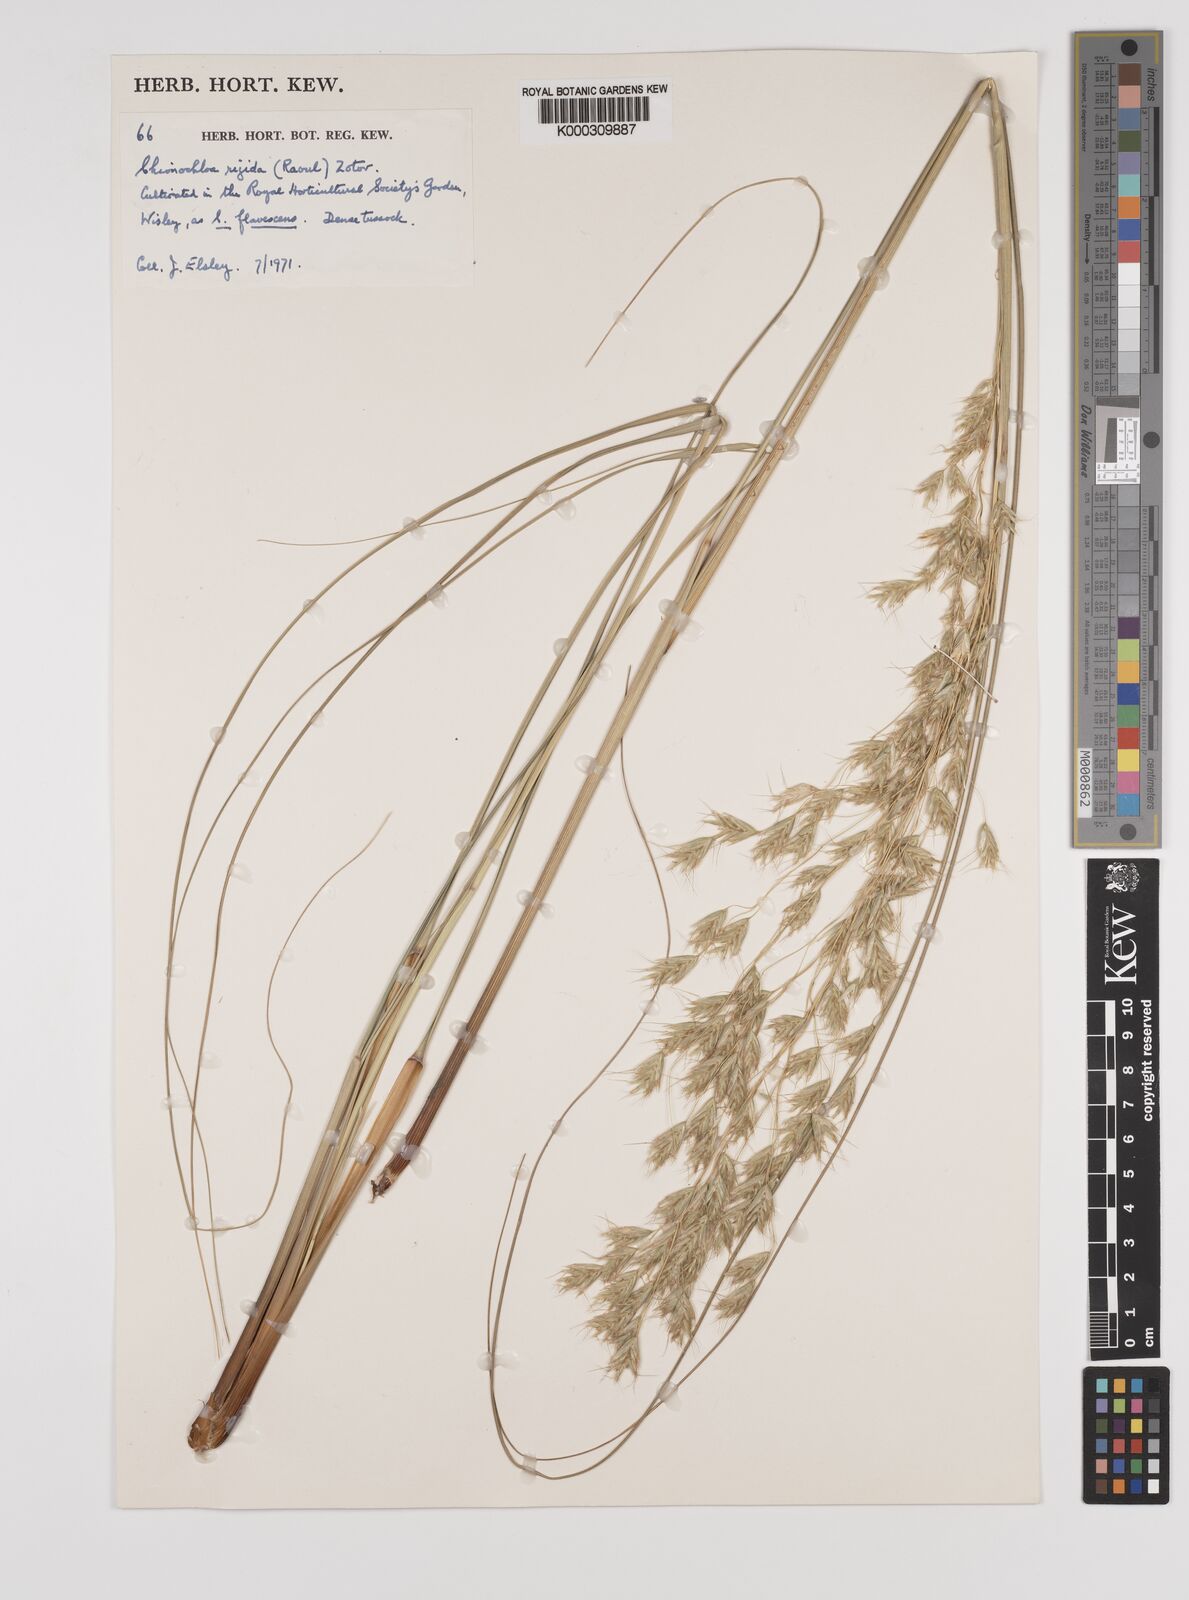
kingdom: Plantae
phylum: Tracheophyta
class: Liliopsida
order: Poales
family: Poaceae
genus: Chionochloa
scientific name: Chionochloa rigida
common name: Narrow leaved snow tussock
